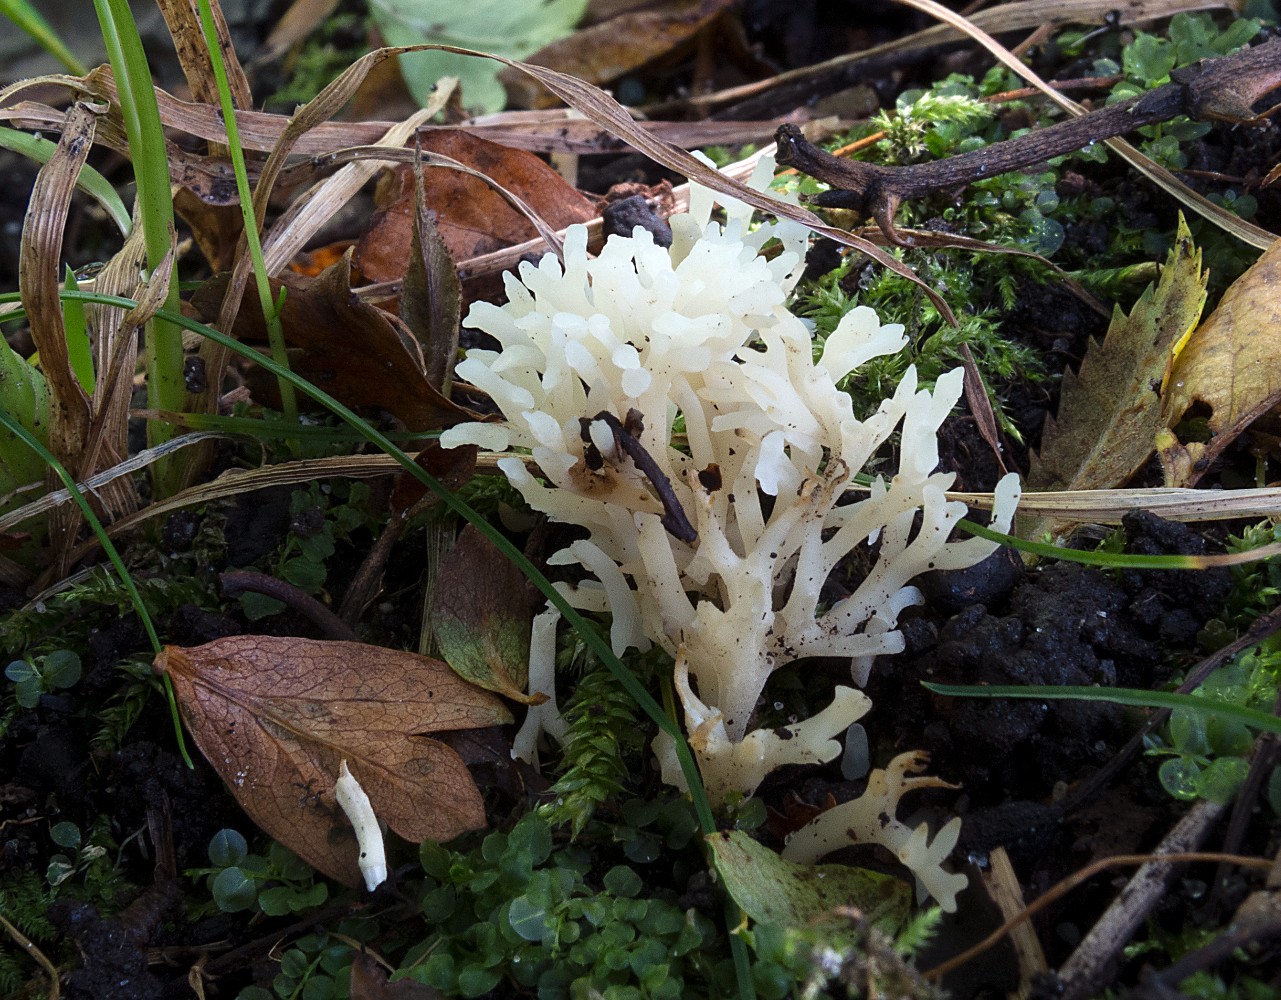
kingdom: Fungi
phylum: Basidiomycota
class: Agaricomycetes
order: Agaricales
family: Clavariaceae
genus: Ramariopsis
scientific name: Ramariopsis kunzei
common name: mangegrenet køllesvamp
